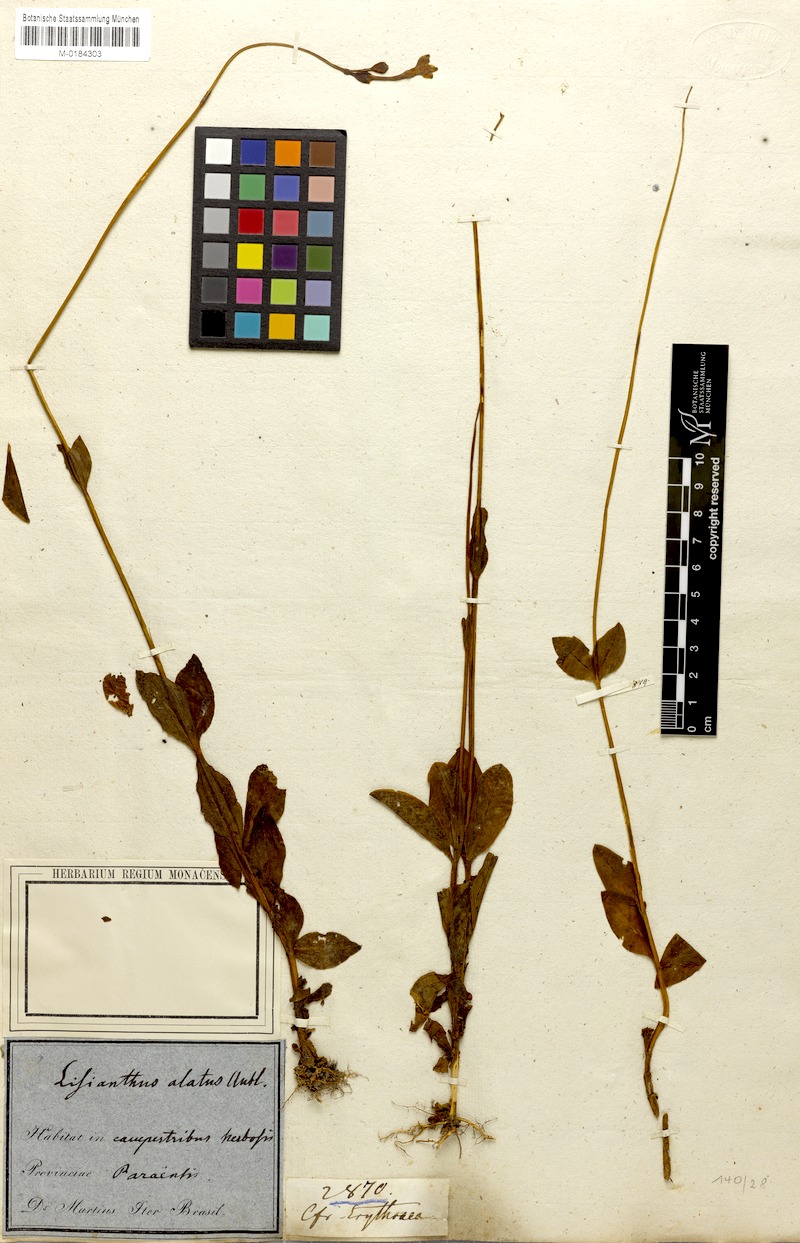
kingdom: Plantae
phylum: Tracheophyta
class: Magnoliopsida
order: Gentianales
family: Gentianaceae
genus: Chelonanthus
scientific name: Chelonanthus alatus
